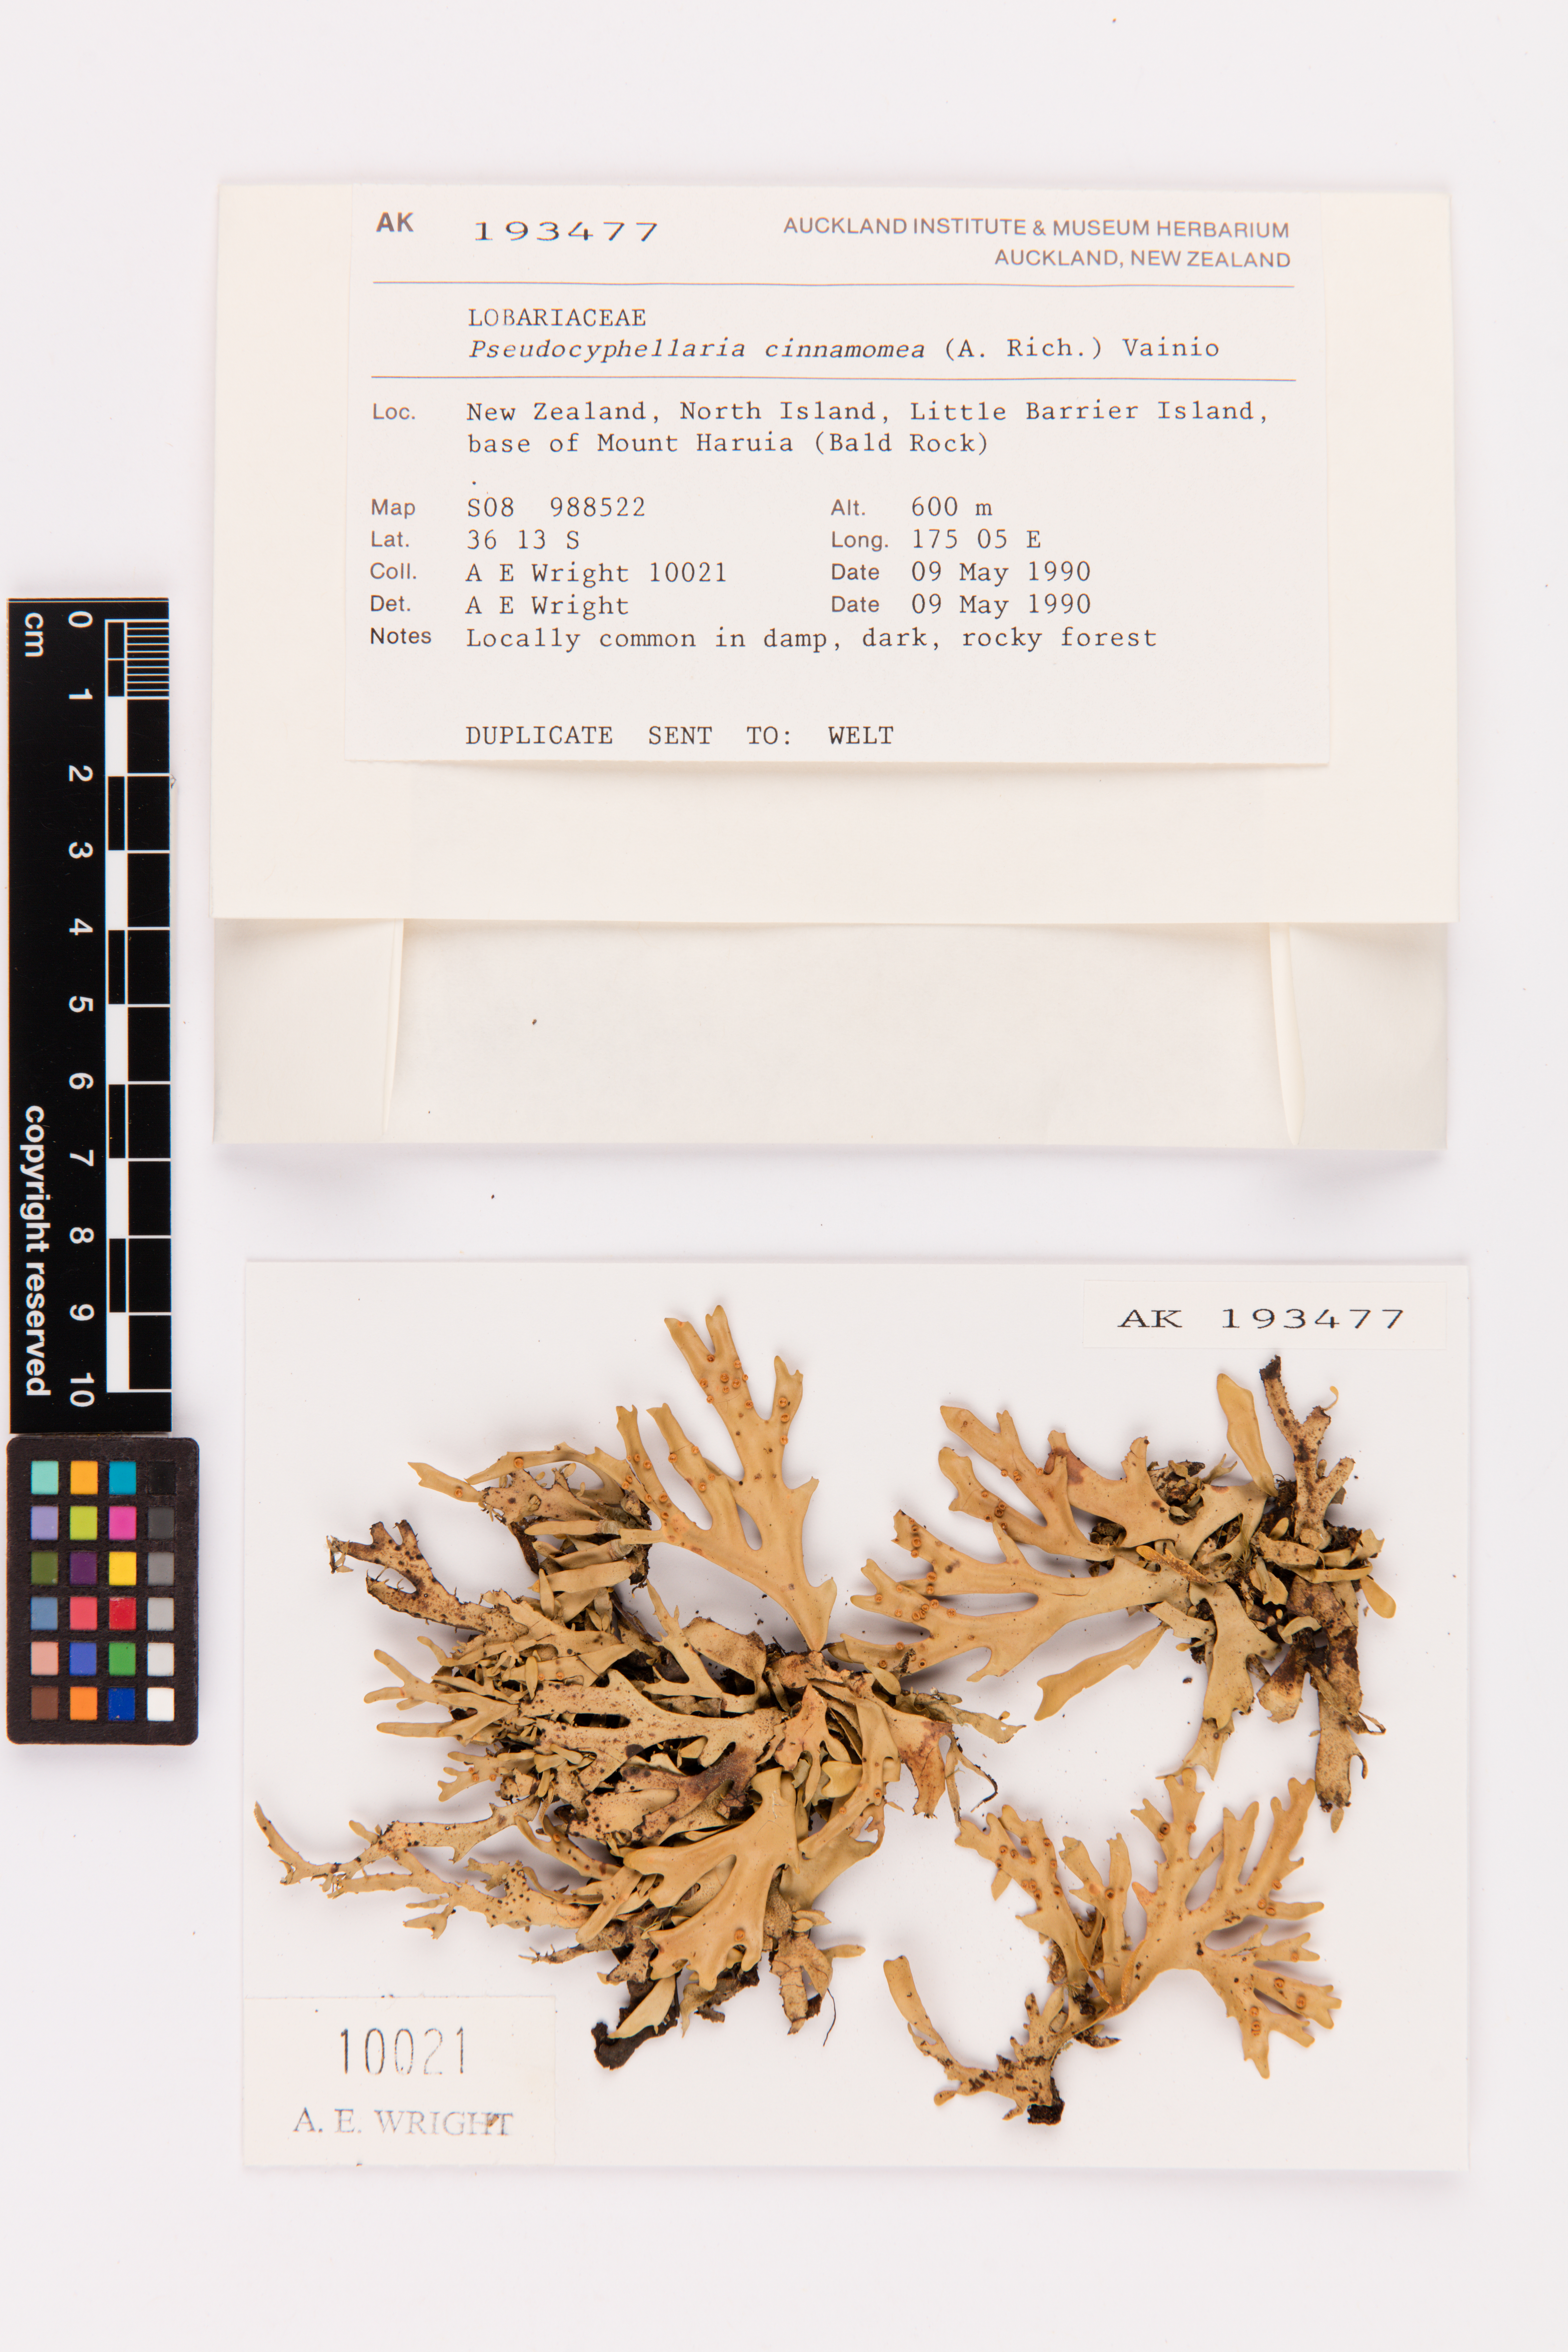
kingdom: Fungi
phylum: Ascomycota
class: Lecanoromycetes
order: Peltigerales
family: Lobariaceae
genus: Pseudocyphellaria
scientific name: Pseudocyphellaria cinnamomea
